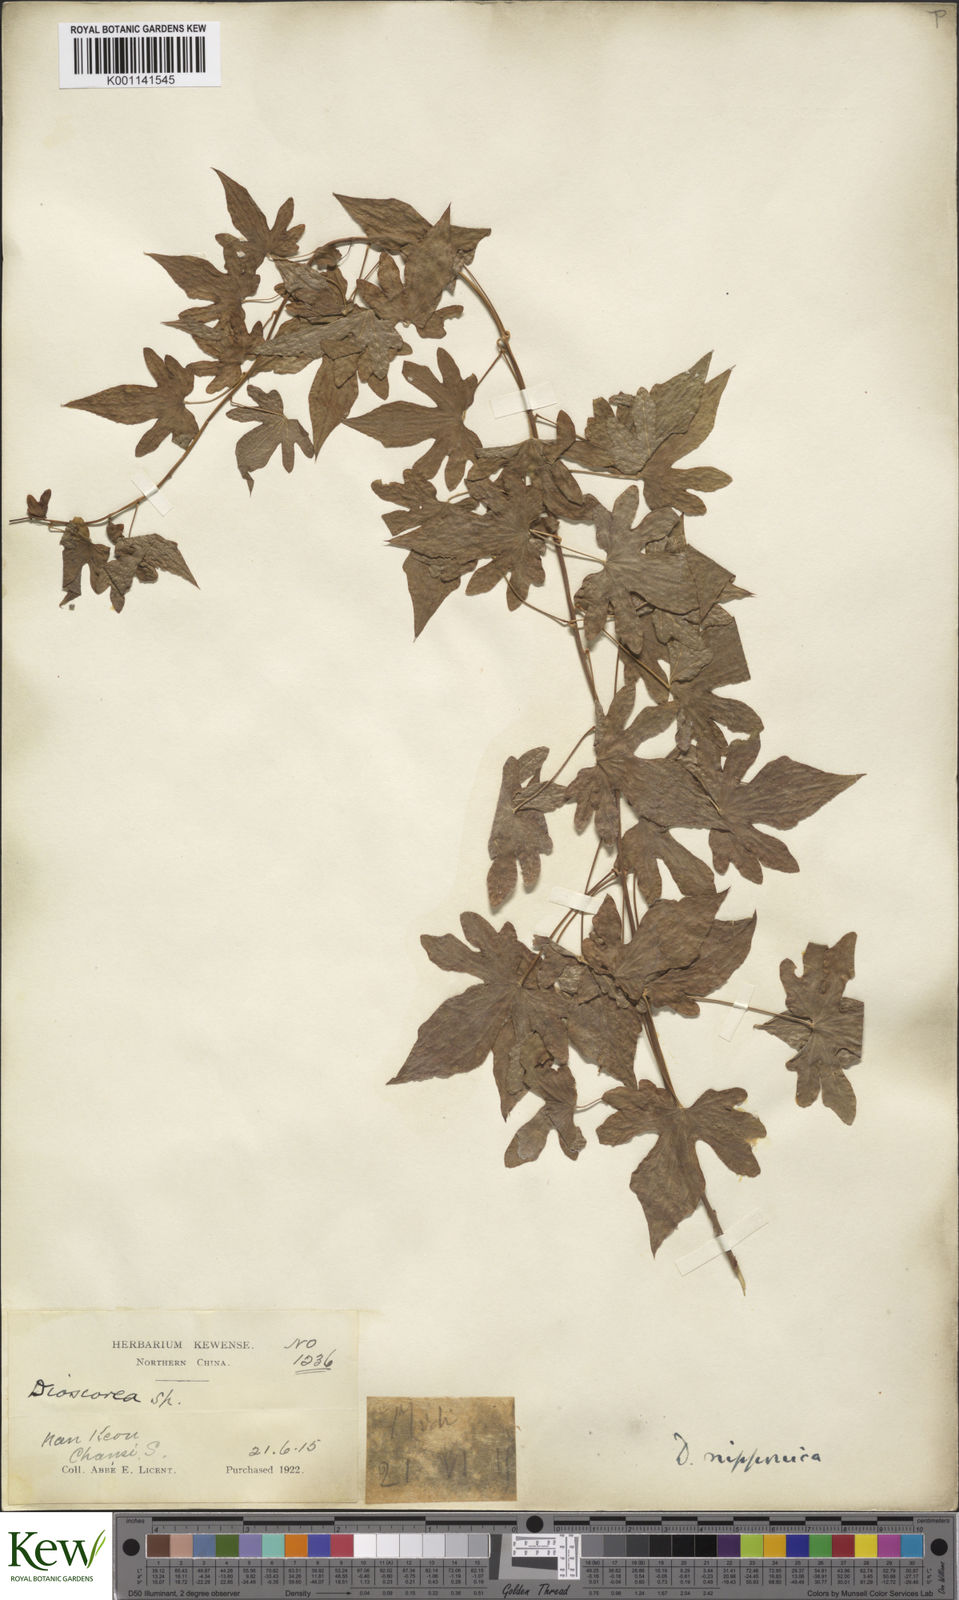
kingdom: Plantae
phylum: Tracheophyta
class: Liliopsida
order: Dioscoreales
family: Dioscoreaceae
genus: Dioscorea
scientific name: Dioscorea nipponica
